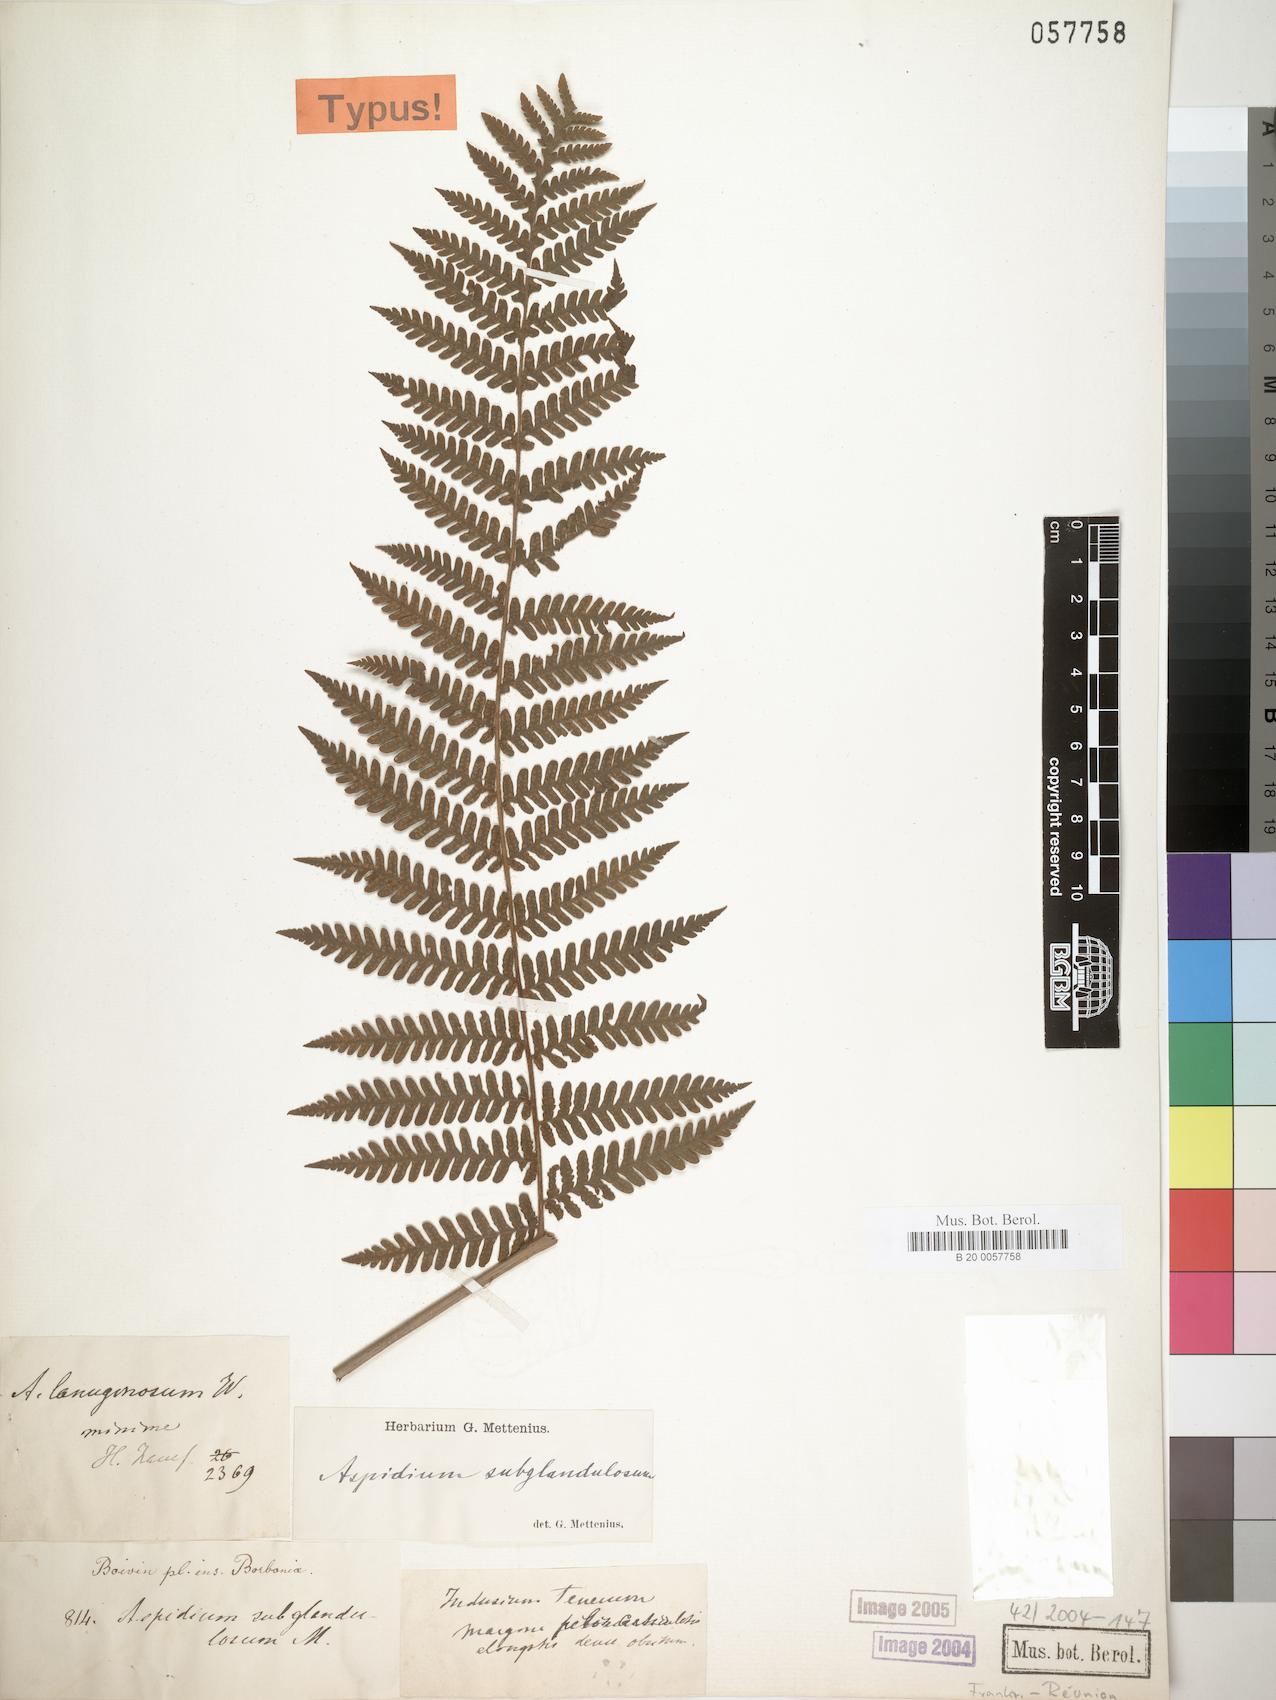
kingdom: Plantae
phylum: Tracheophyta
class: Polypodiopsida
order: Polypodiales
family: Thelypteridaceae
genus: Pseudophegopteris
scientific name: Pseudophegopteris aubertii
